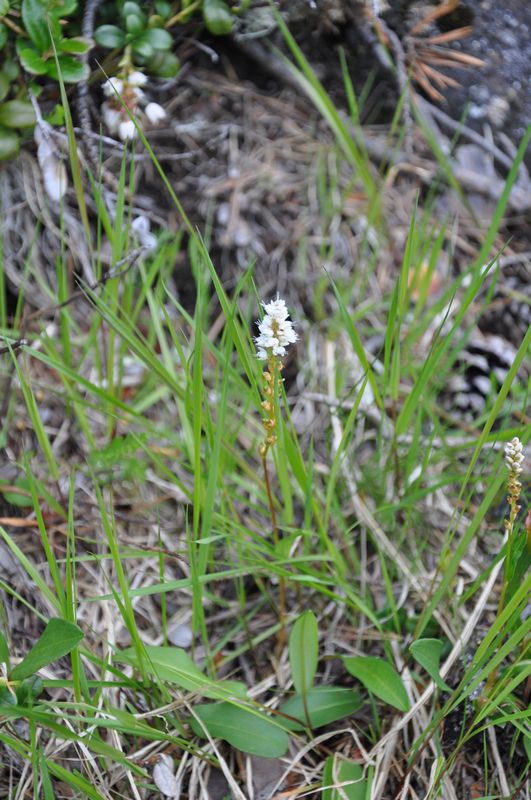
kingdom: Plantae
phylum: Tracheophyta
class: Magnoliopsida
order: Caryophyllales
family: Polygonaceae
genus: Bistorta
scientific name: Bistorta vivipara
